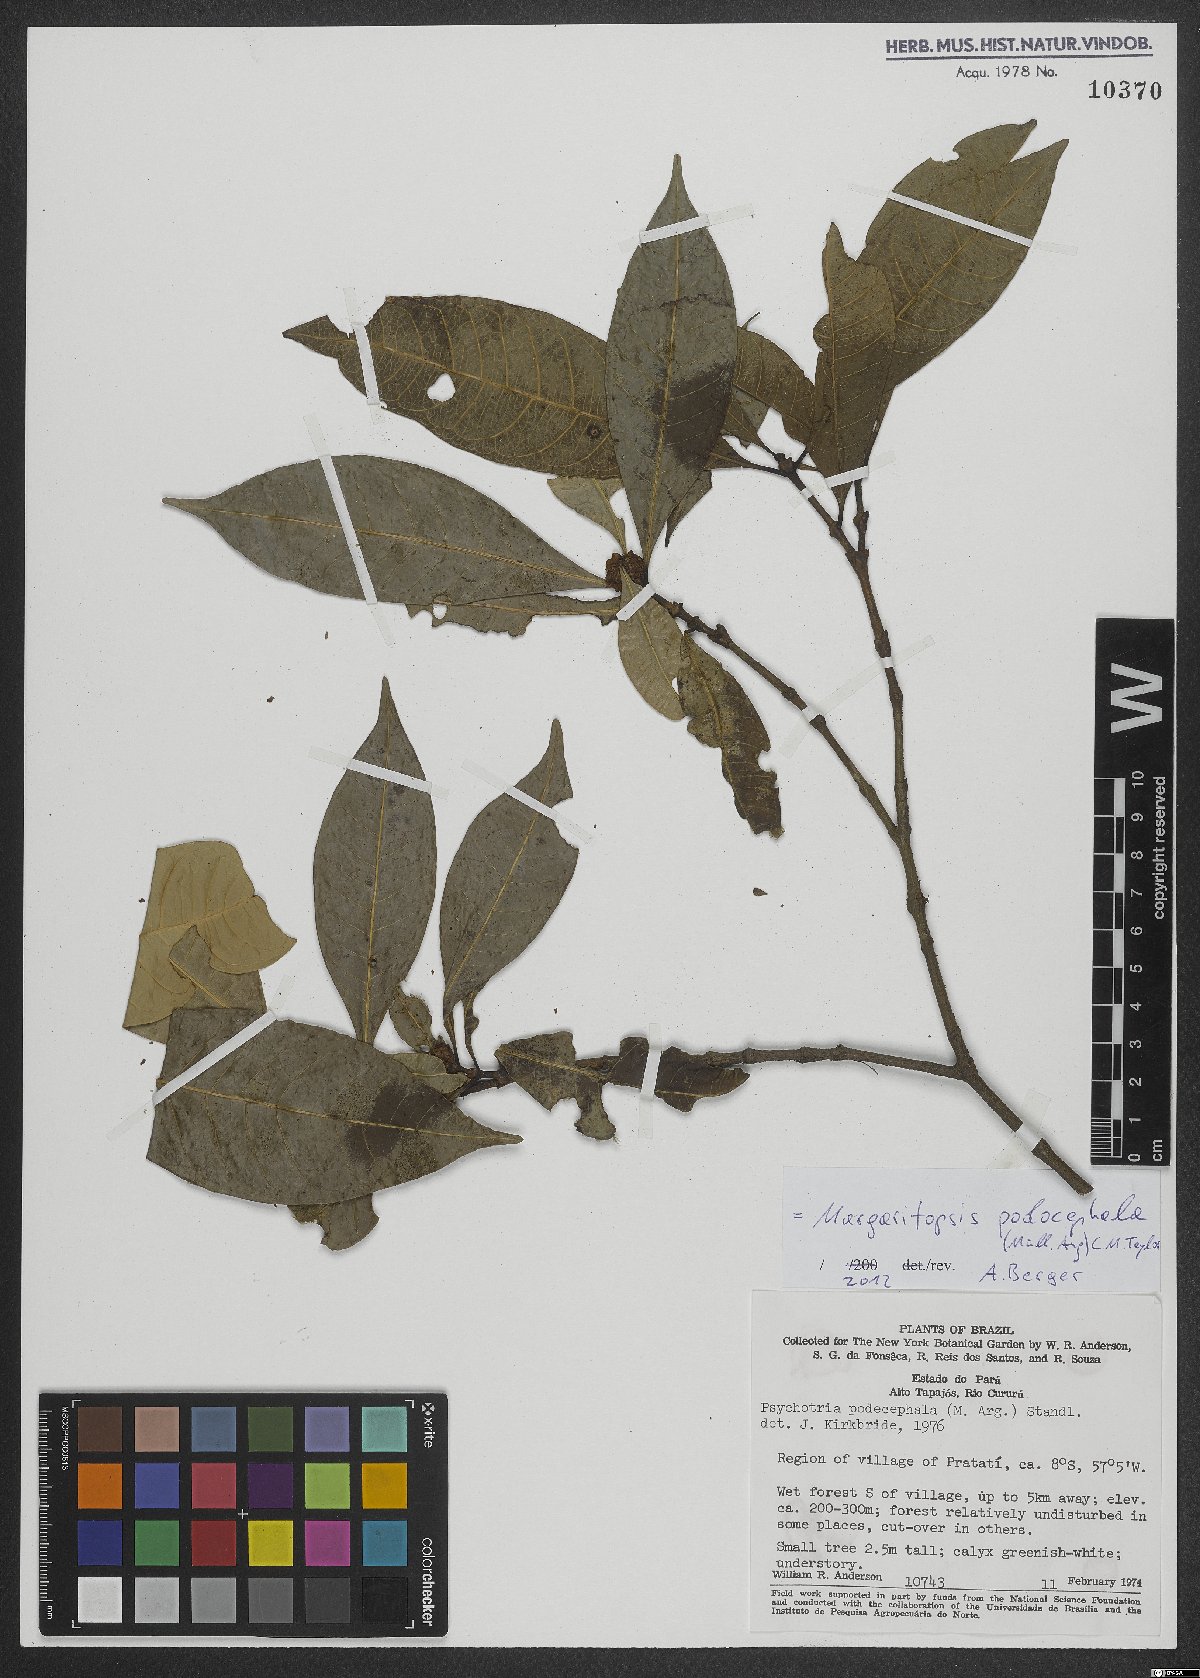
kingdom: Plantae
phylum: Tracheophyta
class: Magnoliopsida
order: Gentianales
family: Rubiaceae
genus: Eumachia
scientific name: Eumachia podocephala
